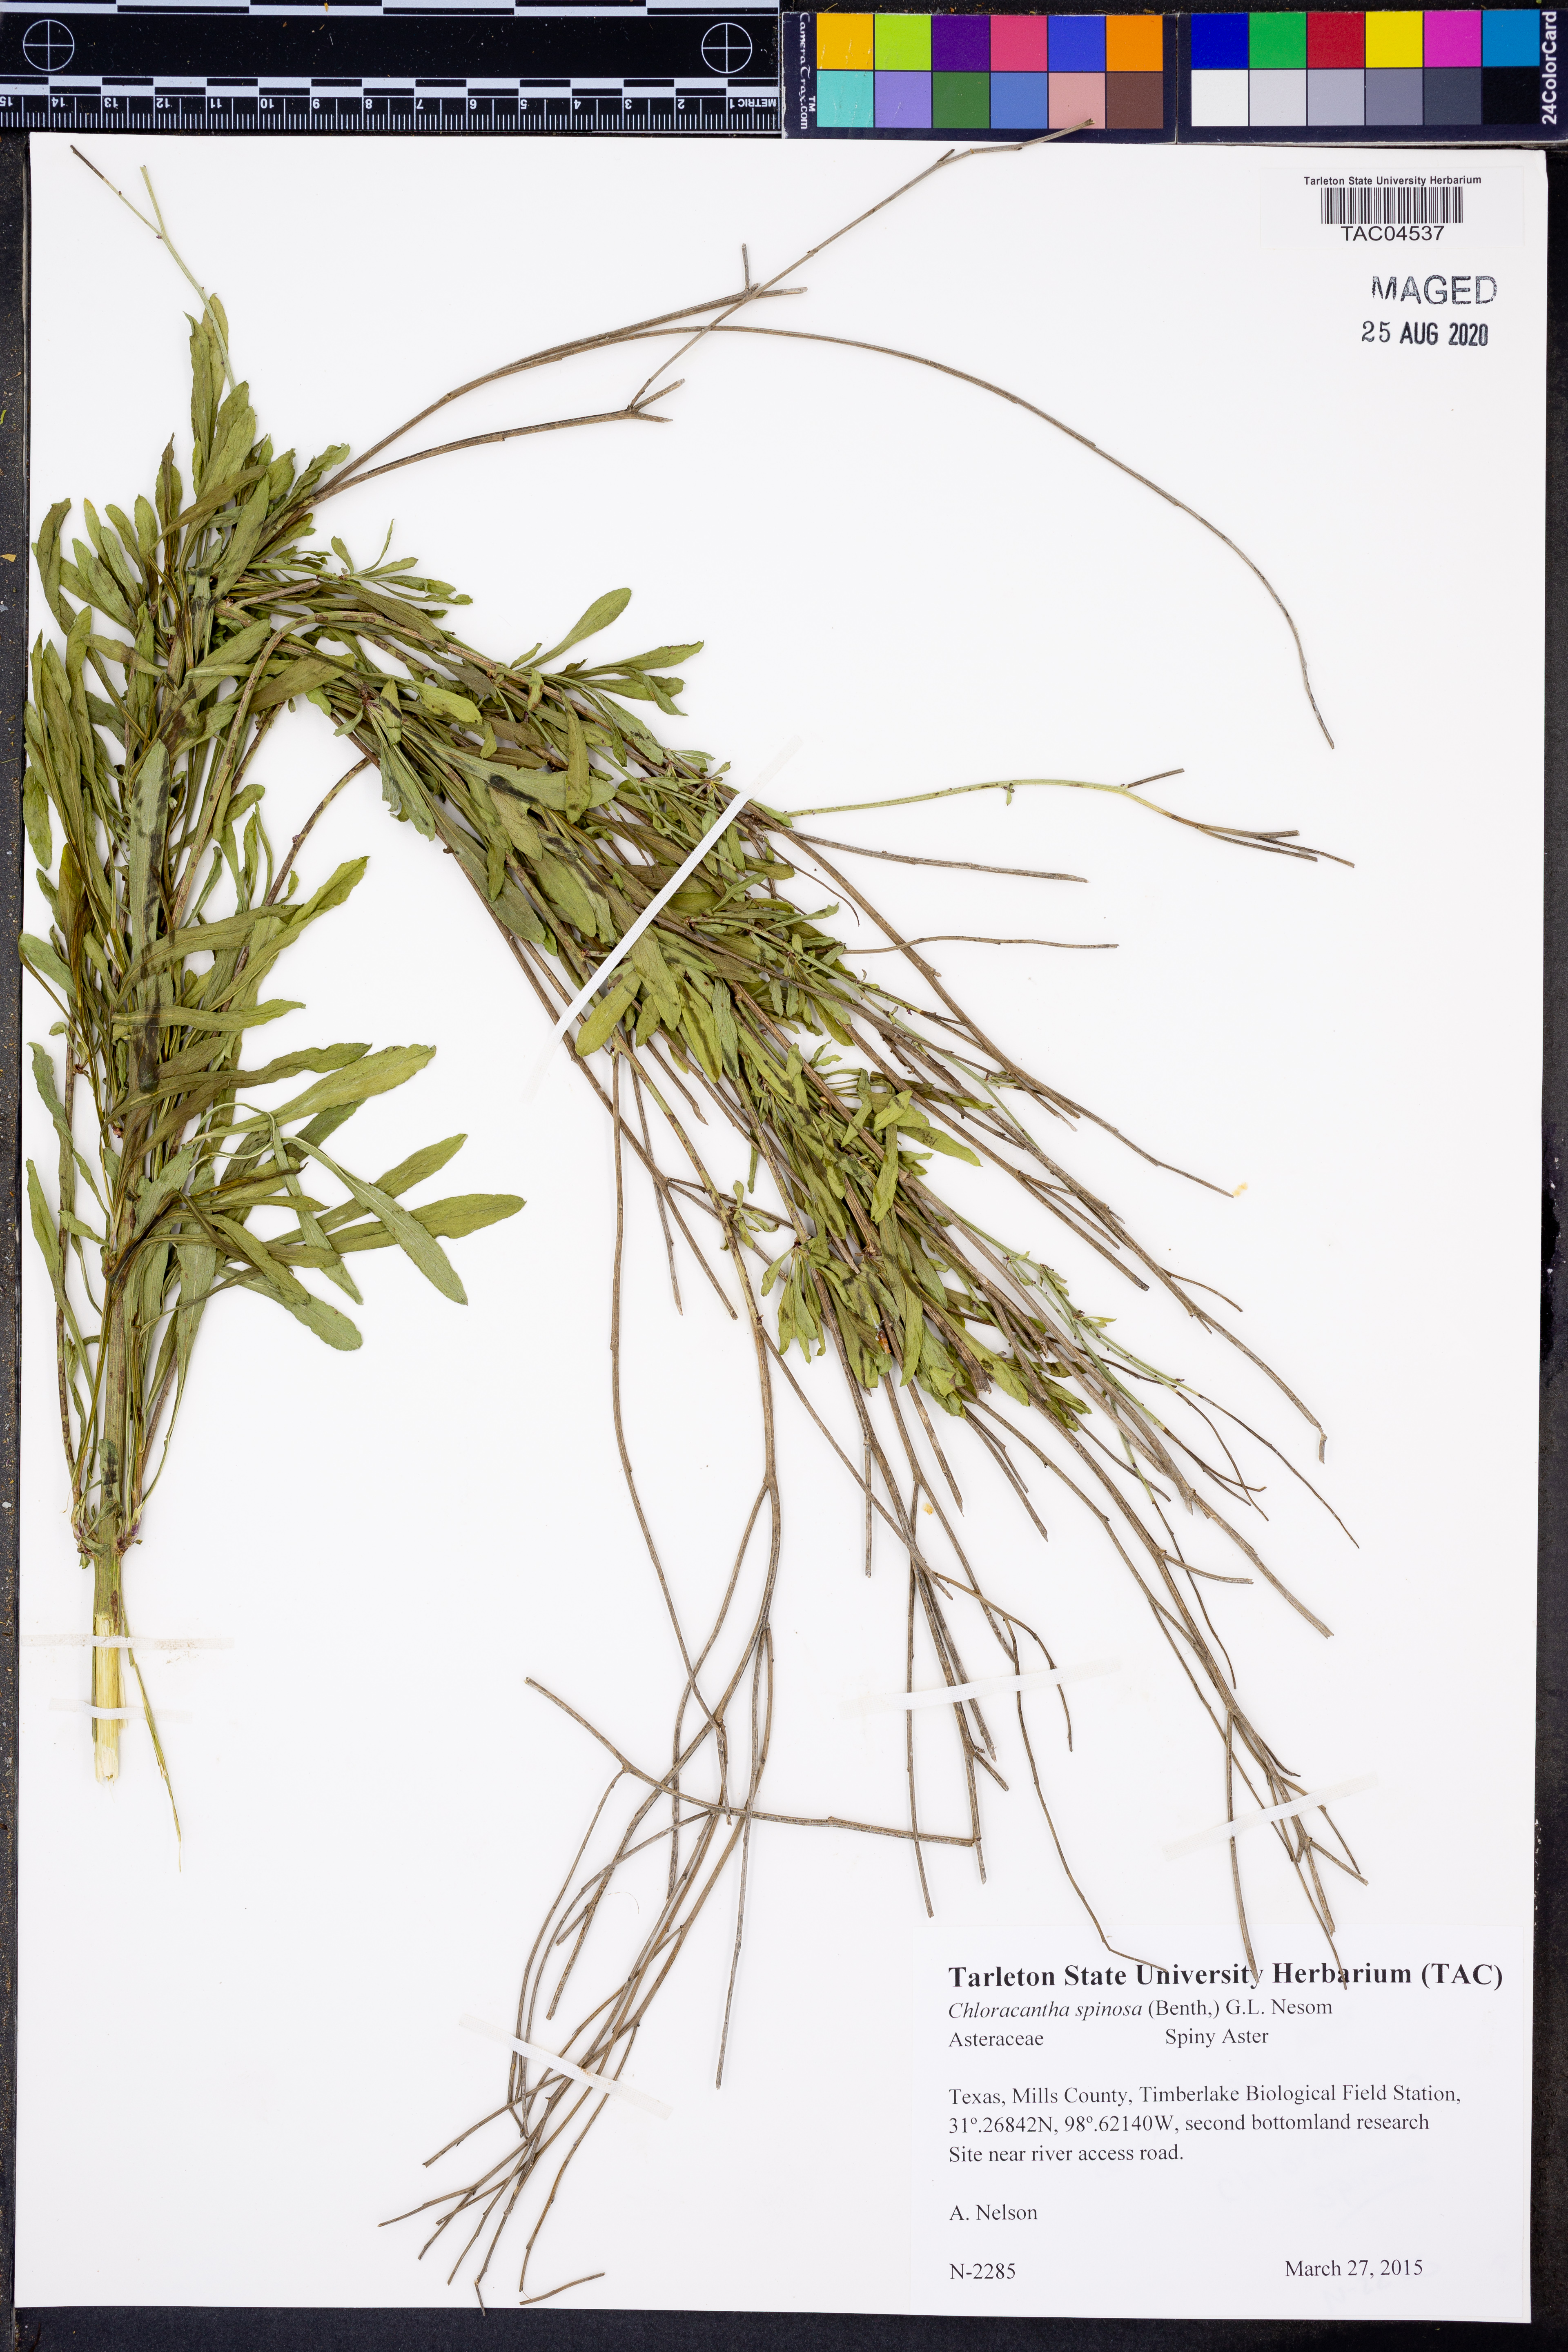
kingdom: Plantae
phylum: Tracheophyta
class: Magnoliopsida
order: Asterales
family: Asteraceae
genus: Chloracantha
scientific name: Chloracantha spinosa
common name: Mexican devilweed
